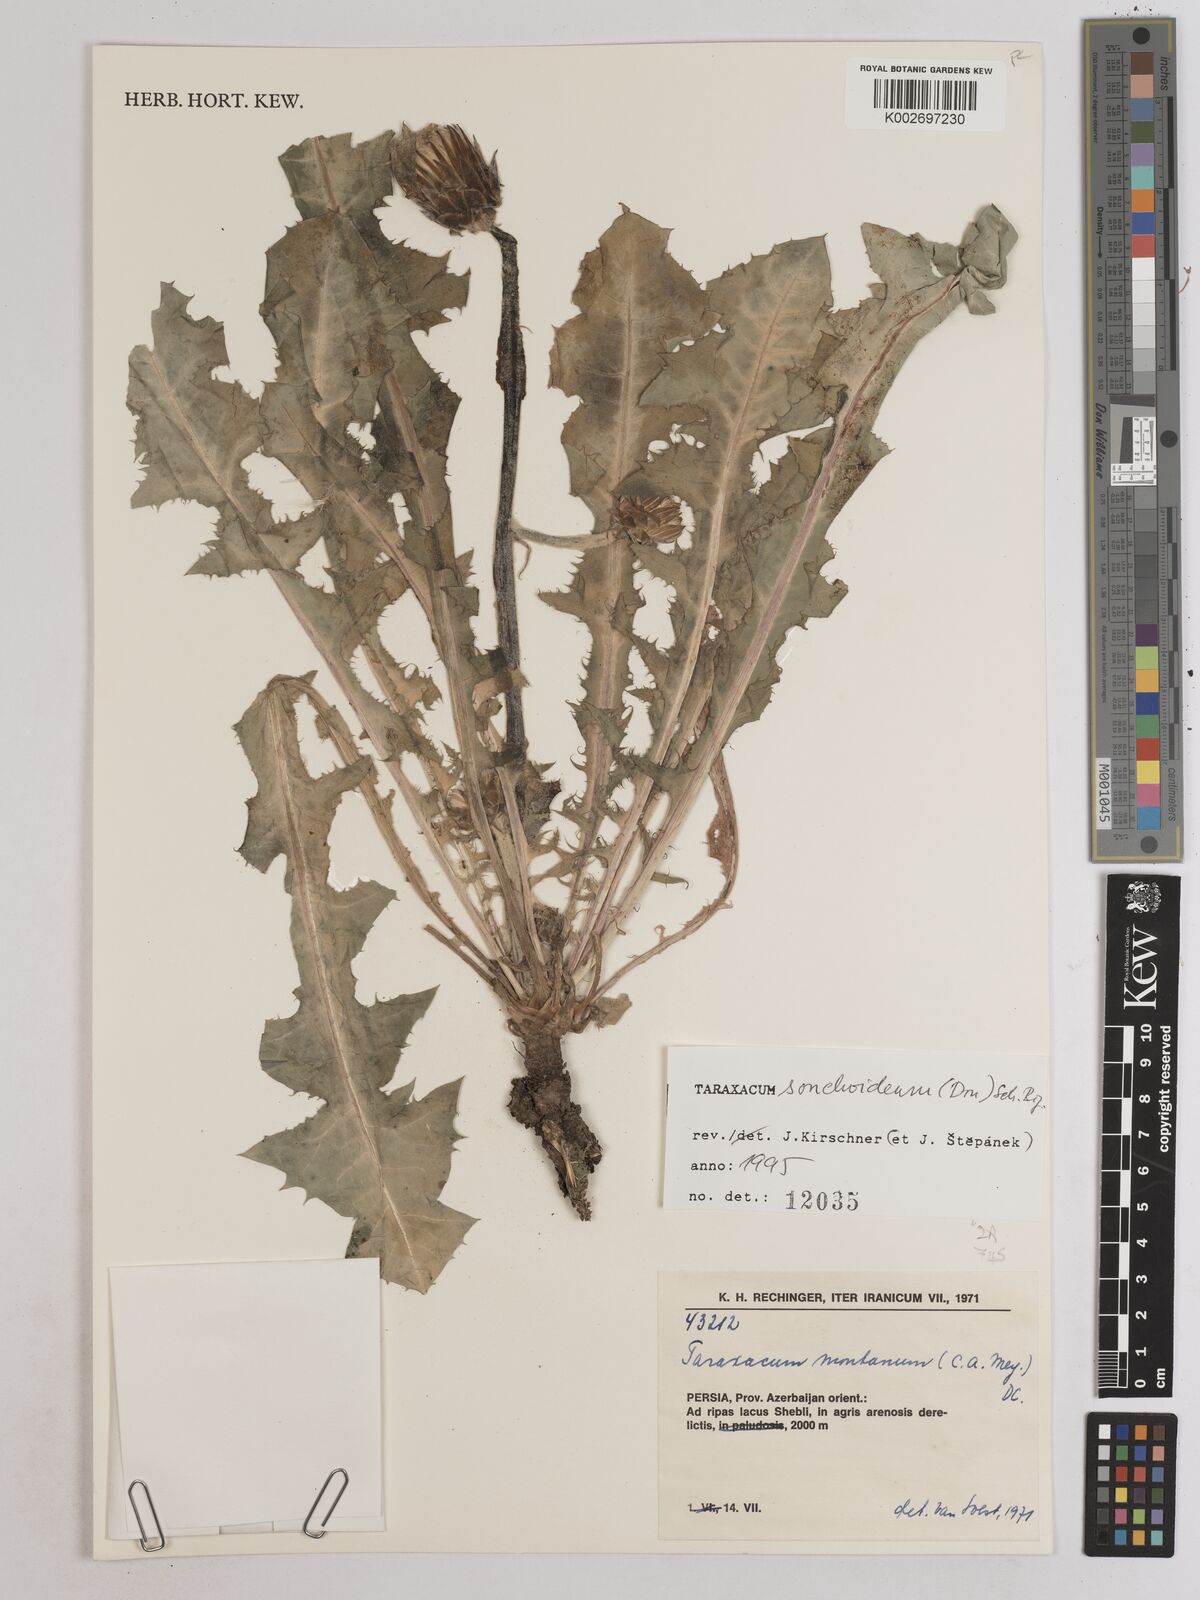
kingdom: Plantae
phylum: Tracheophyta
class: Magnoliopsida
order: Asterales
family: Asteraceae
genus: Taraxacum
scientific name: Taraxacum sonchoides
